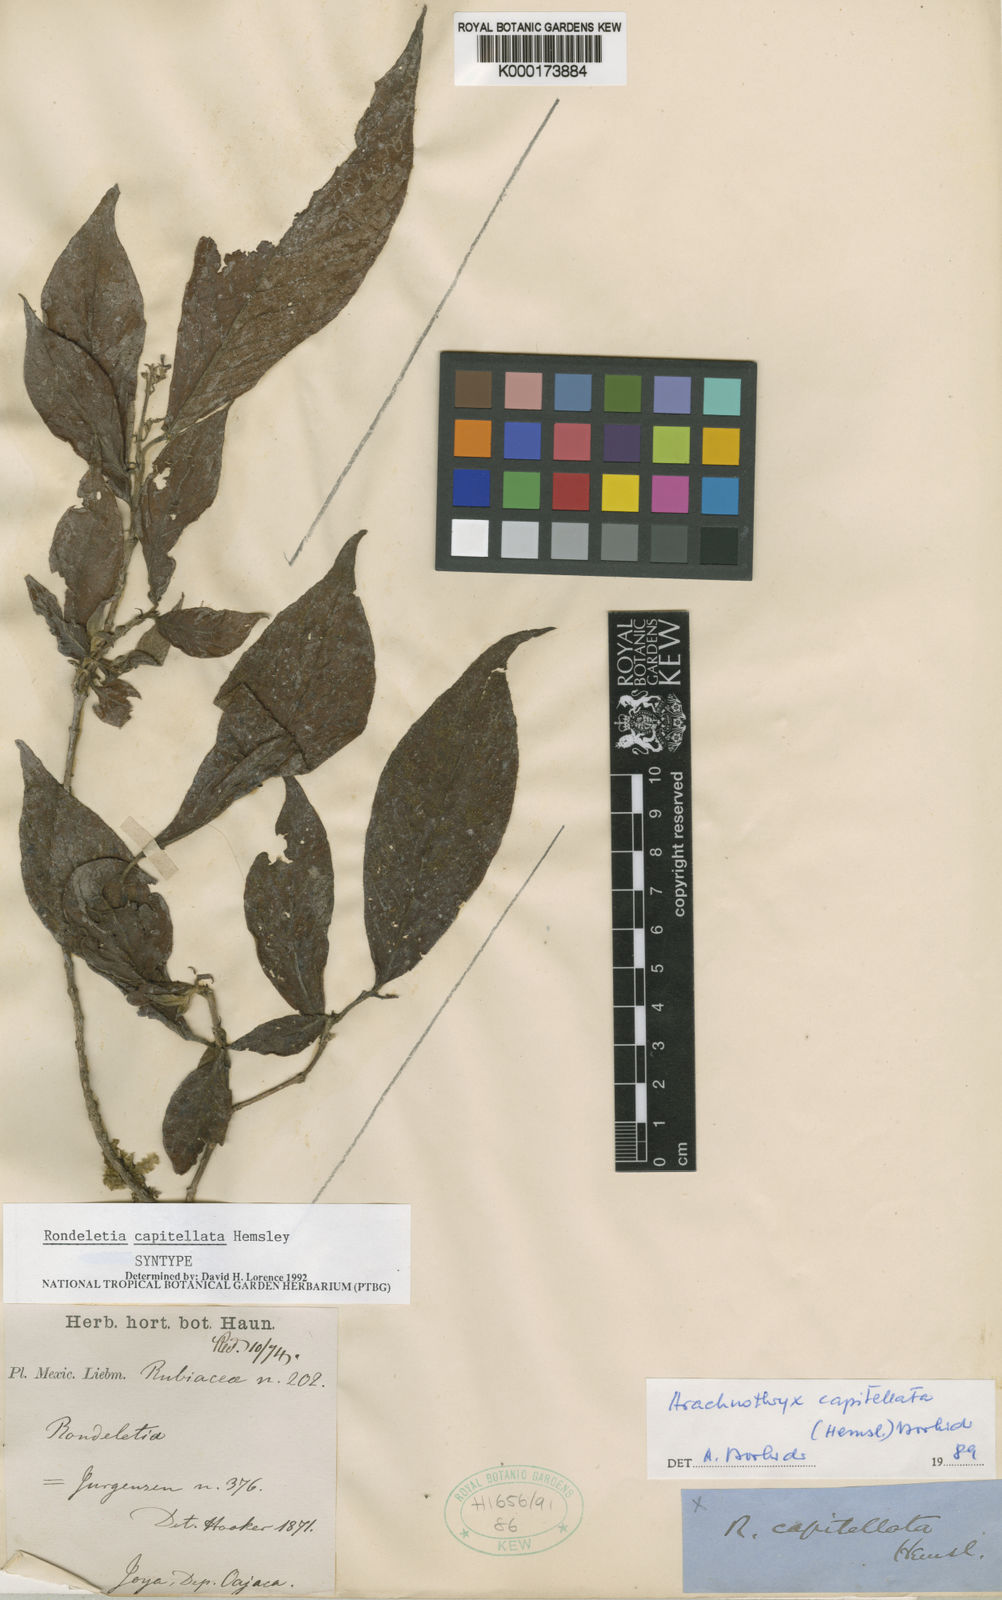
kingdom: Plantae
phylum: Tracheophyta
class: Magnoliopsida
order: Gentianales
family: Rubiaceae
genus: Arachnothryx
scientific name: Arachnothryx capitellata
